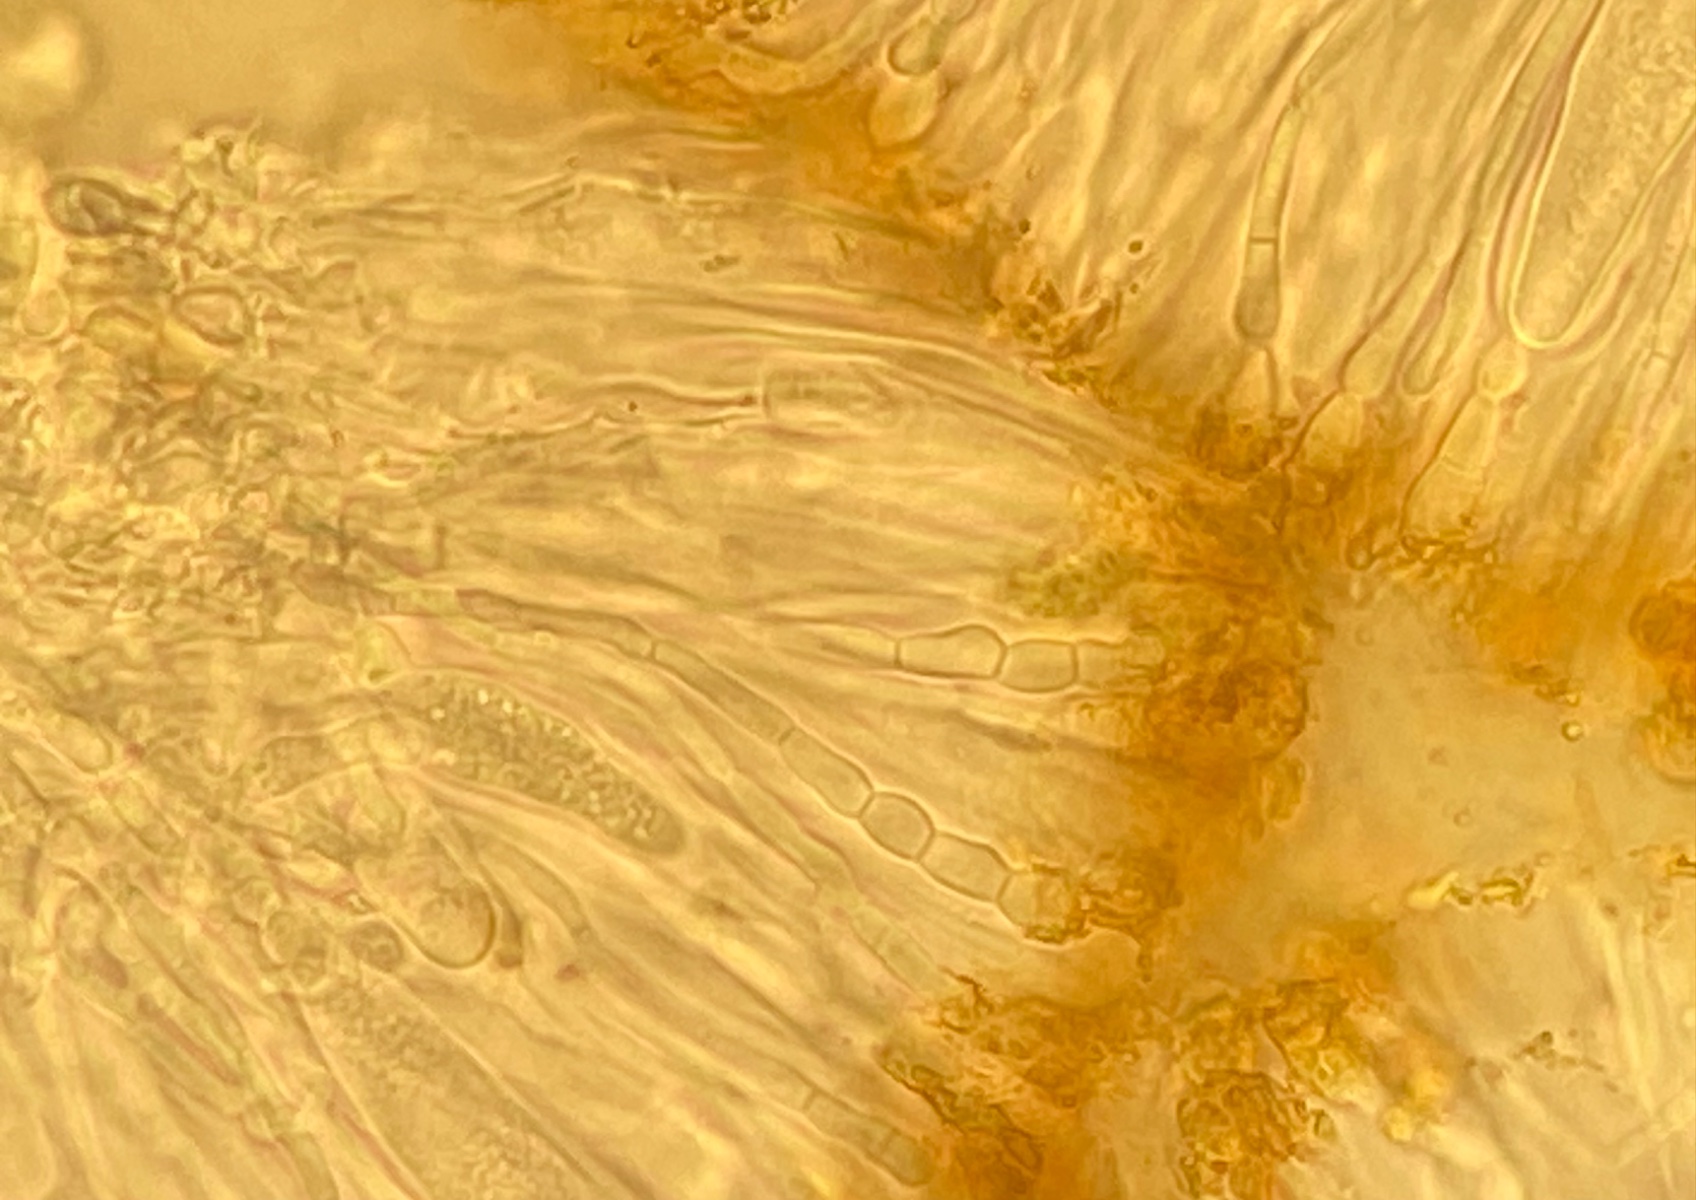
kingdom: Fungi
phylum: Ascomycota
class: Lecanoromycetes
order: Teloschistales
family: Teloschistaceae
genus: Flavoplaca
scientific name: Flavoplaca marina
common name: strand-orangelav
